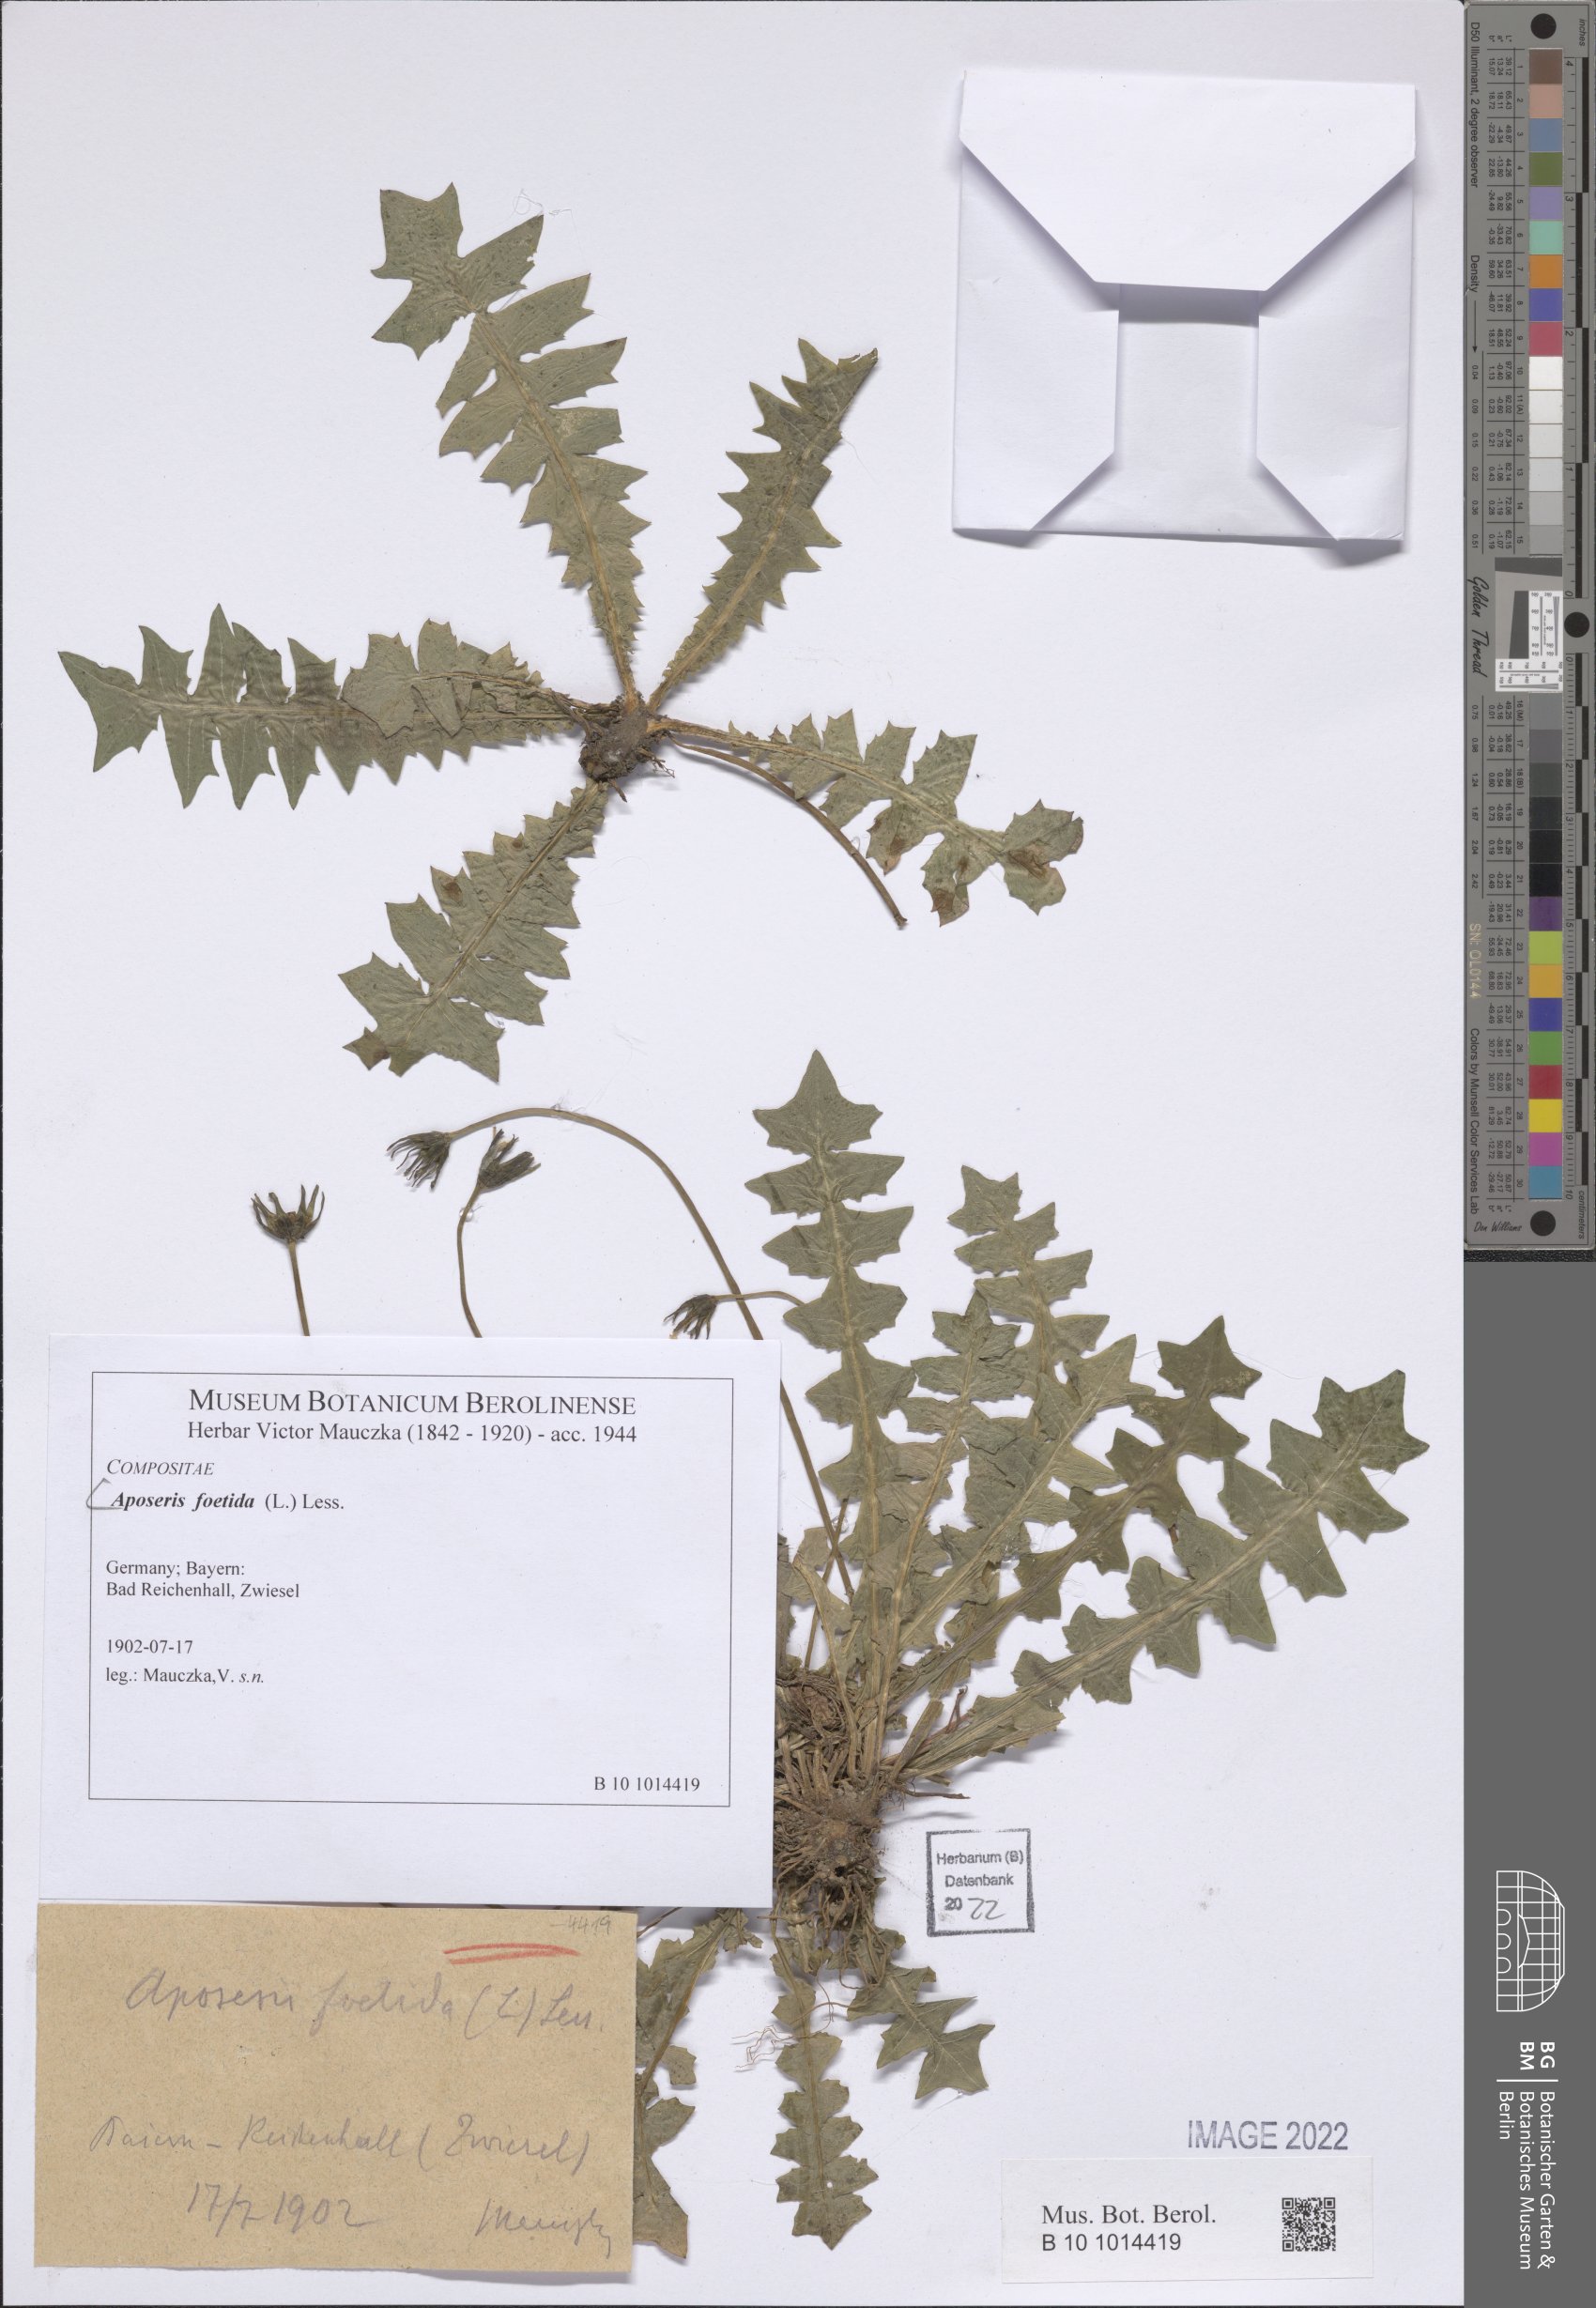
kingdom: Plantae
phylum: Tracheophyta
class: Magnoliopsida
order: Asterales
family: Asteraceae
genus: Aposeris
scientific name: Aposeris foetida
